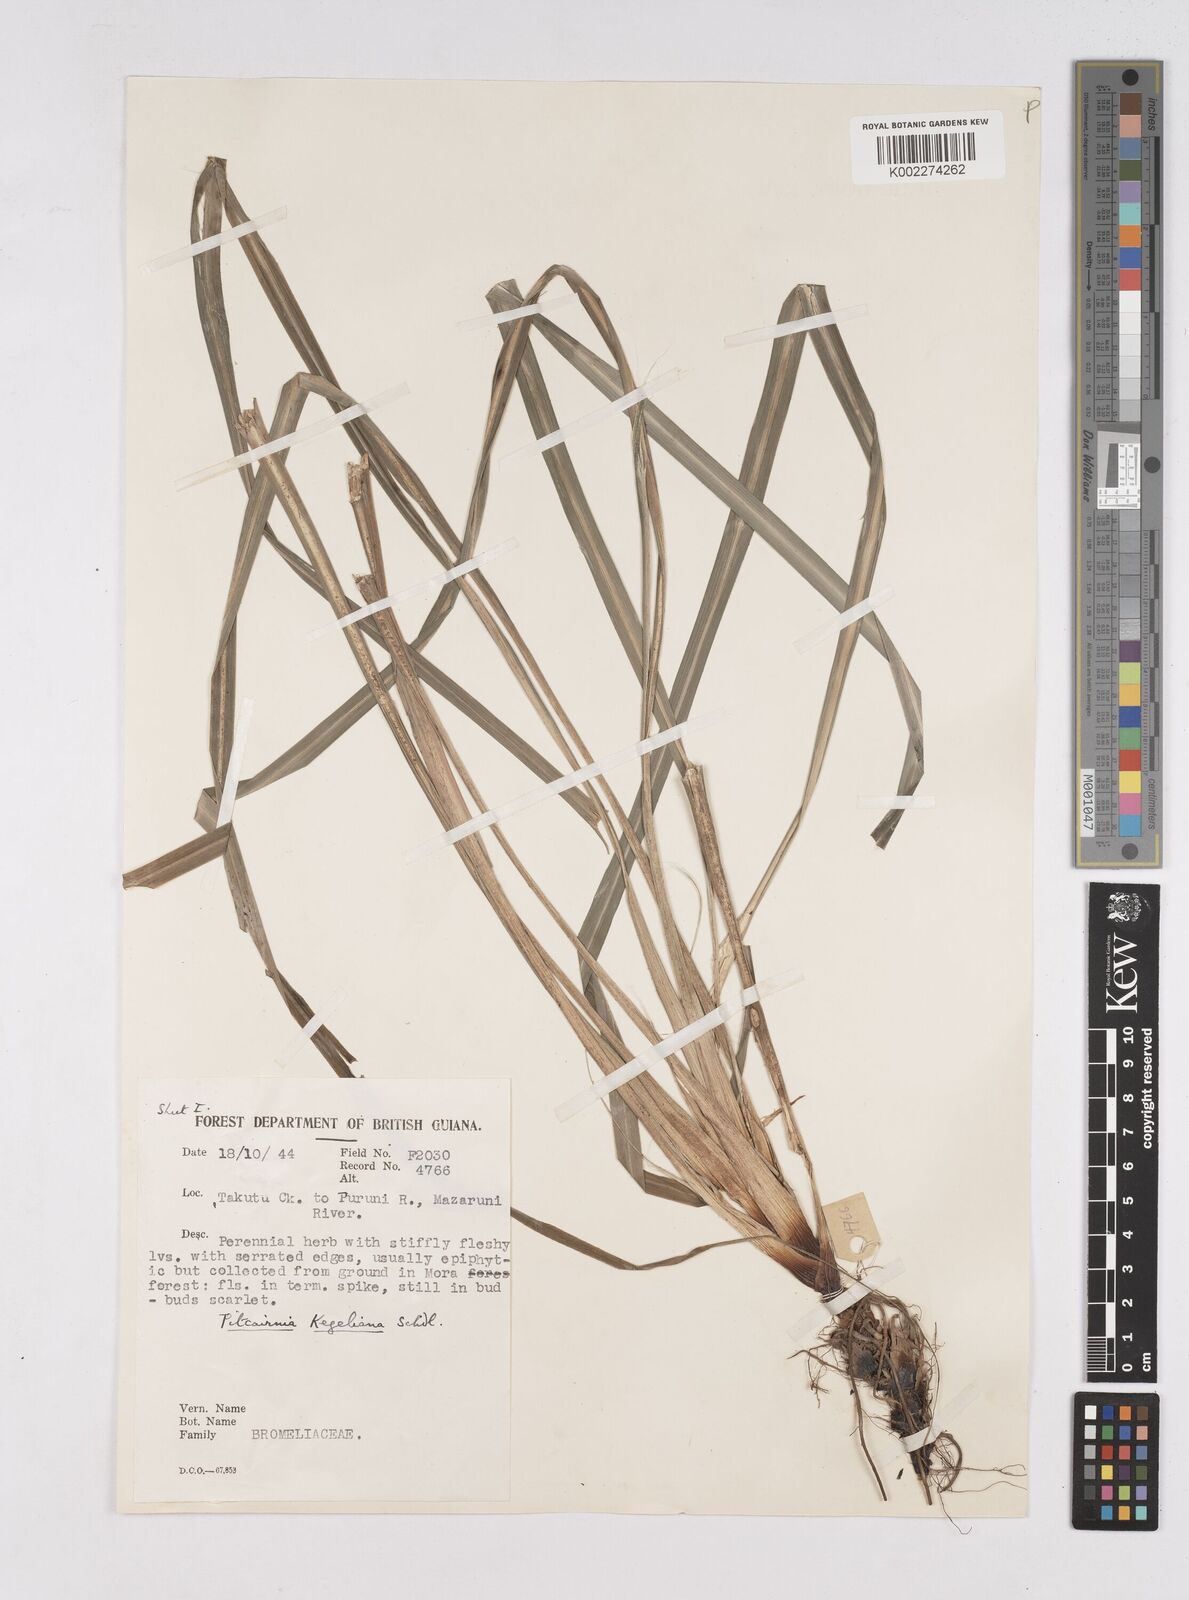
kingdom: Plantae
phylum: Tracheophyta
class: Liliopsida
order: Poales
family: Bromeliaceae
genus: Pitcairnia
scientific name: Pitcairnia caricifolia
